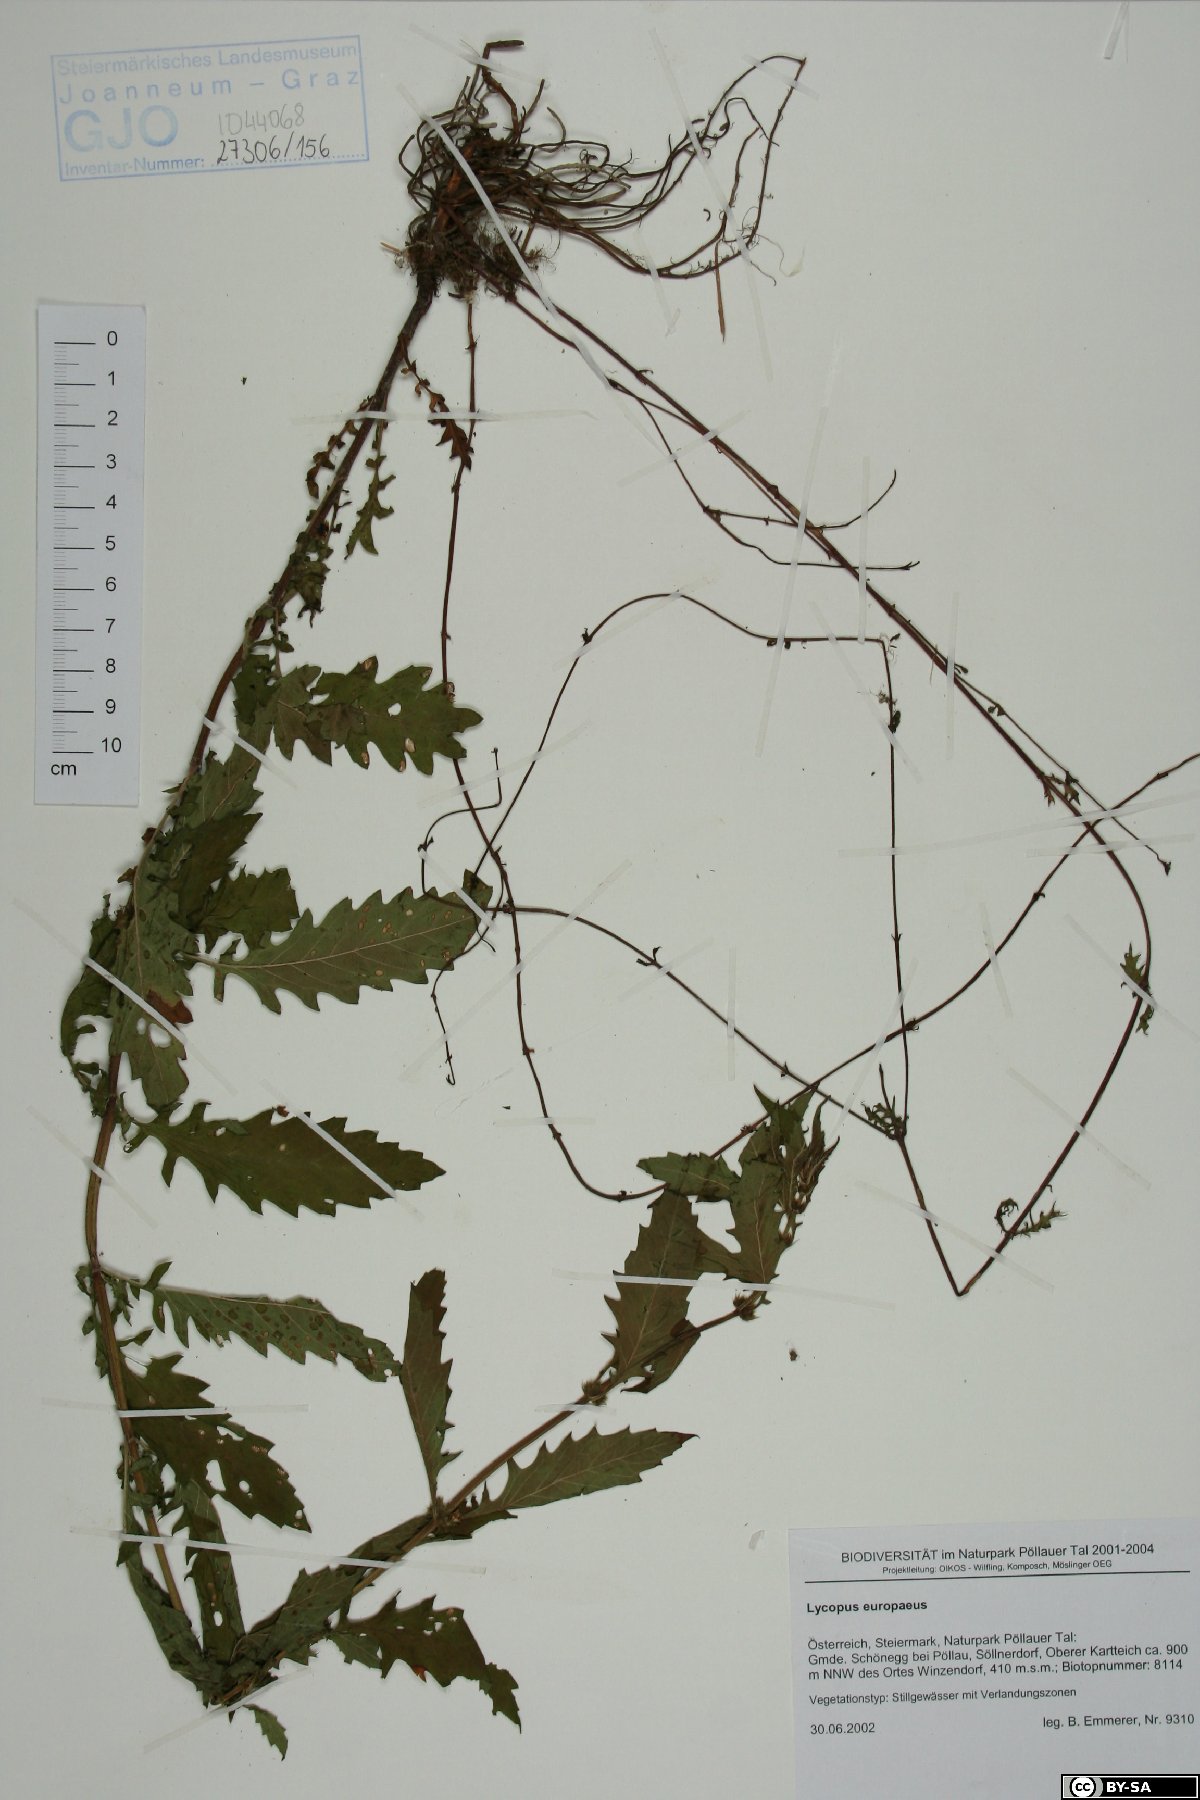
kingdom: Plantae
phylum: Tracheophyta
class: Magnoliopsida
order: Lamiales
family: Lamiaceae
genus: Lycopus
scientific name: Lycopus europaeus
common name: European bugleweed
